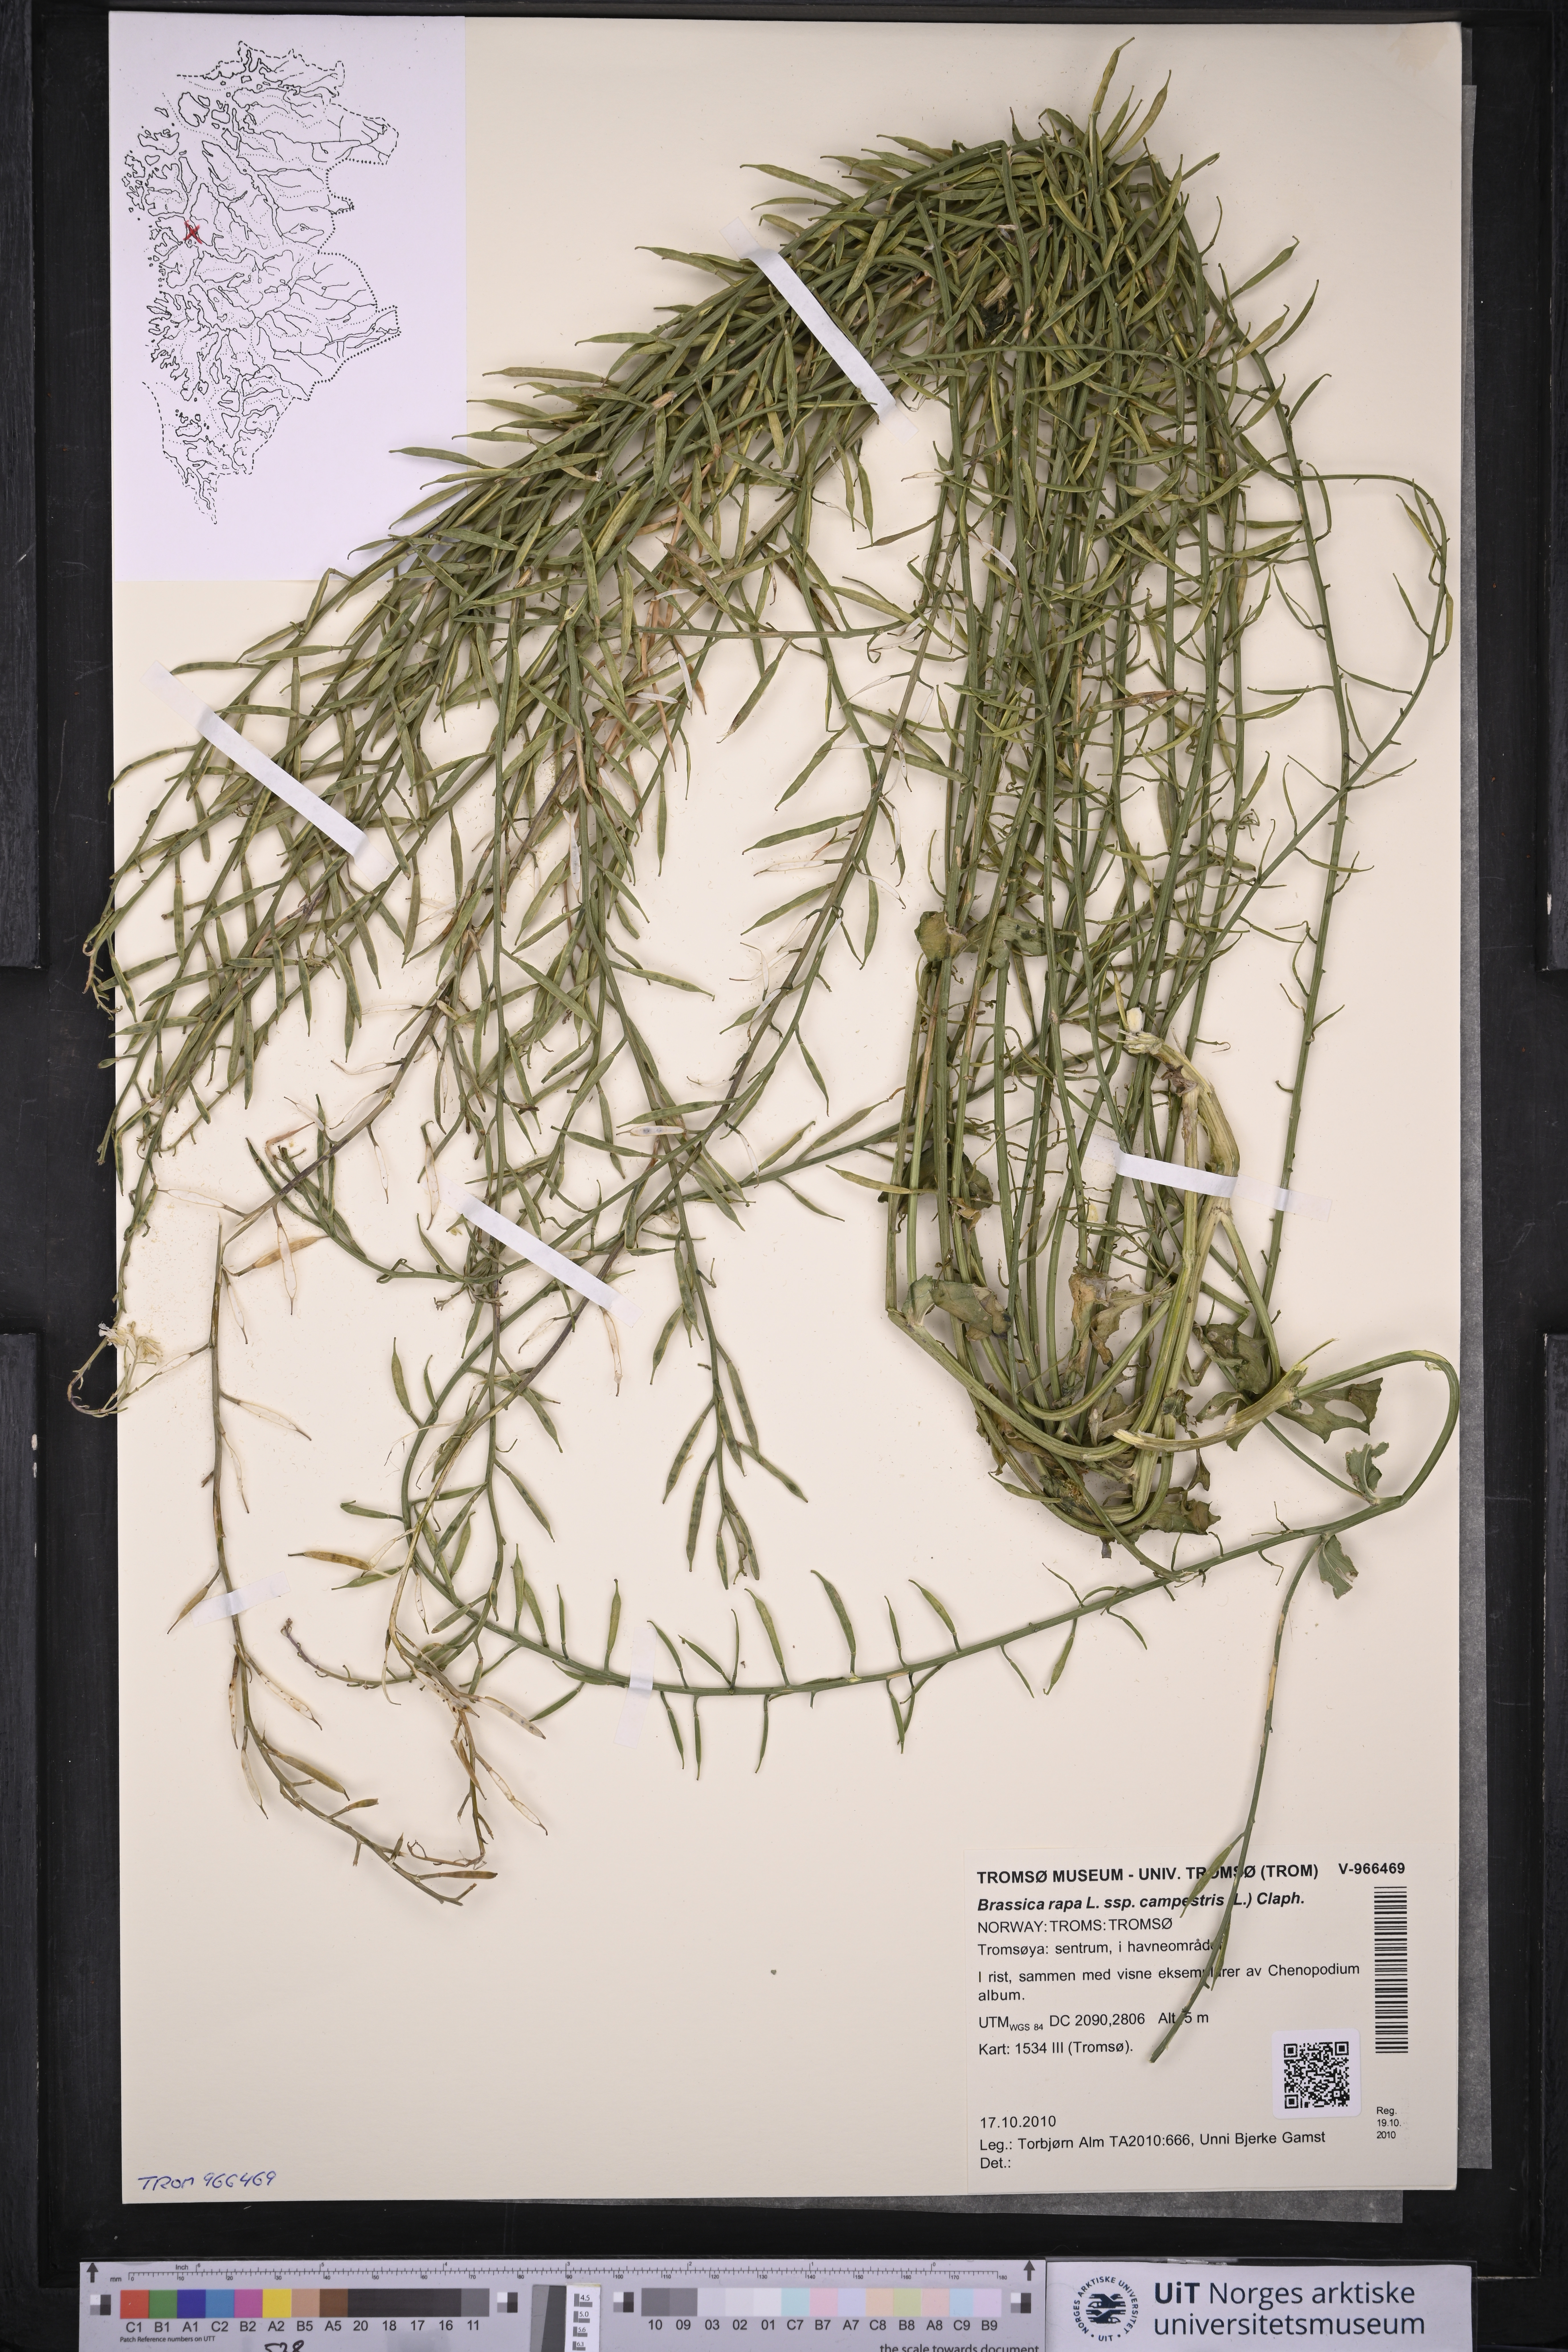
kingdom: Plantae
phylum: Tracheophyta
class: Magnoliopsida
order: Brassicales
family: Brassicaceae
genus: Brassica
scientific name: Brassica rapa
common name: Field mustard
